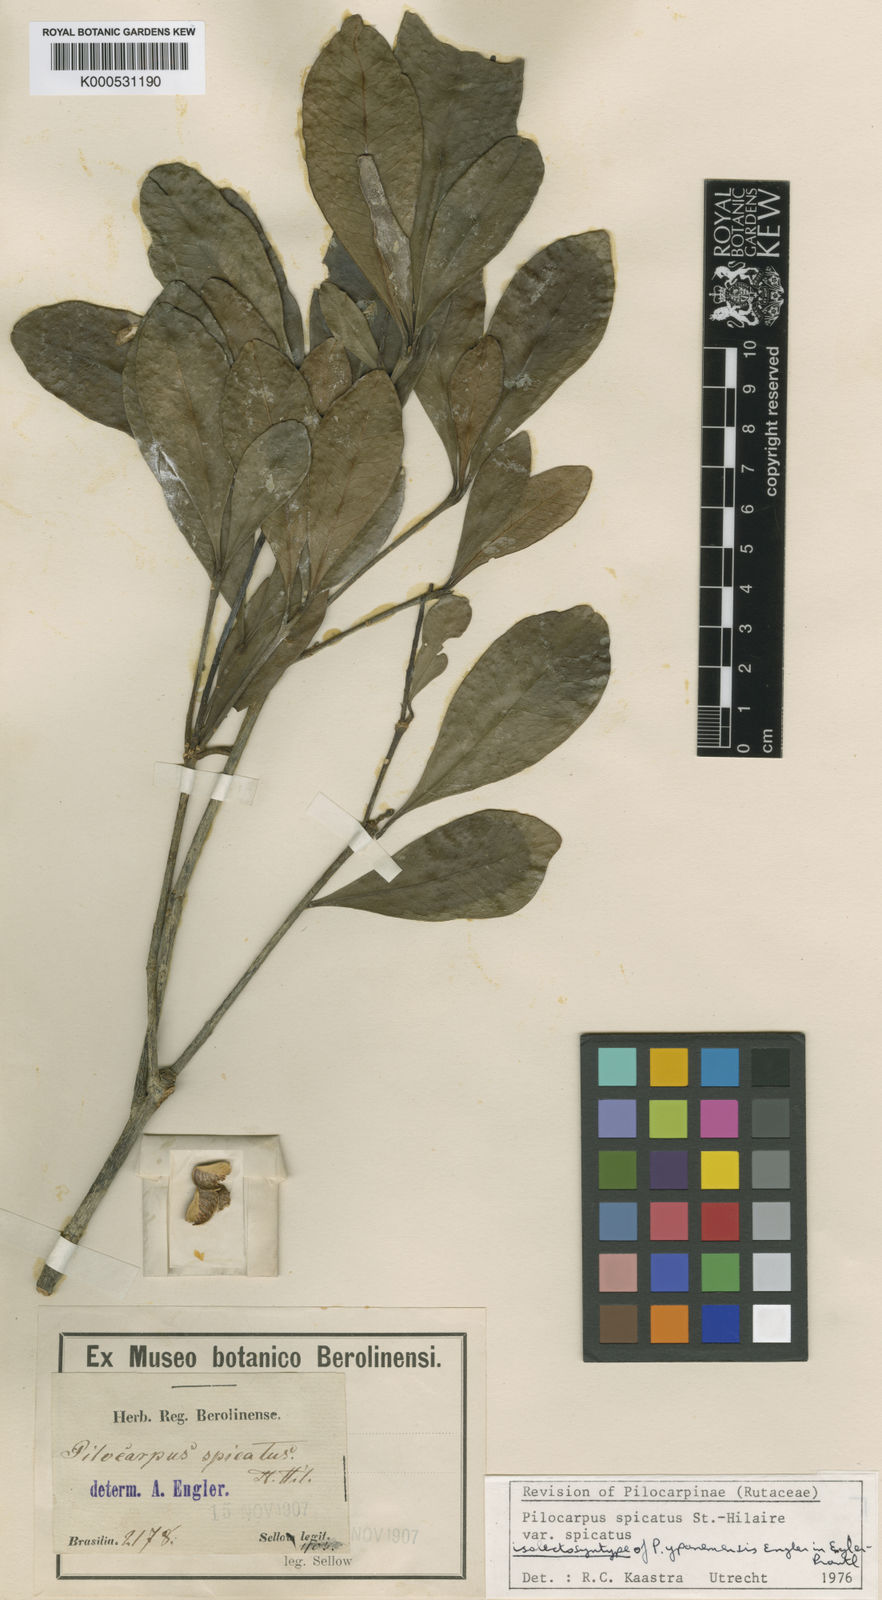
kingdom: Plantae
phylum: Tracheophyta
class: Magnoliopsida
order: Sapindales
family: Rutaceae
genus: Pilocarpus
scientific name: Pilocarpus
